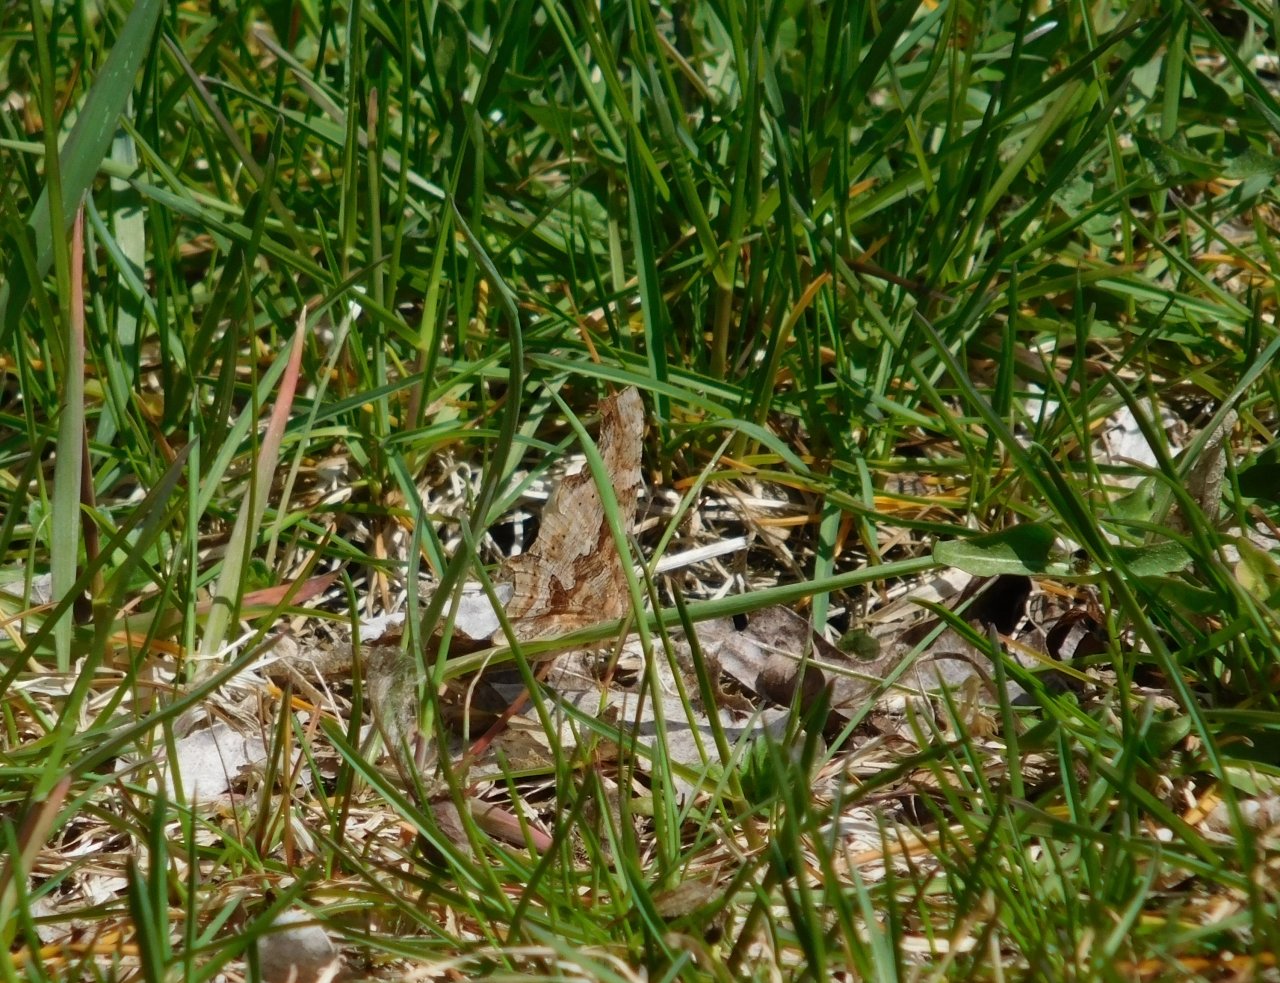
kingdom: Animalia
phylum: Arthropoda
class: Insecta
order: Lepidoptera
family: Nymphalidae
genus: Polygonia
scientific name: Polygonia comma
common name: Eastern Comma
